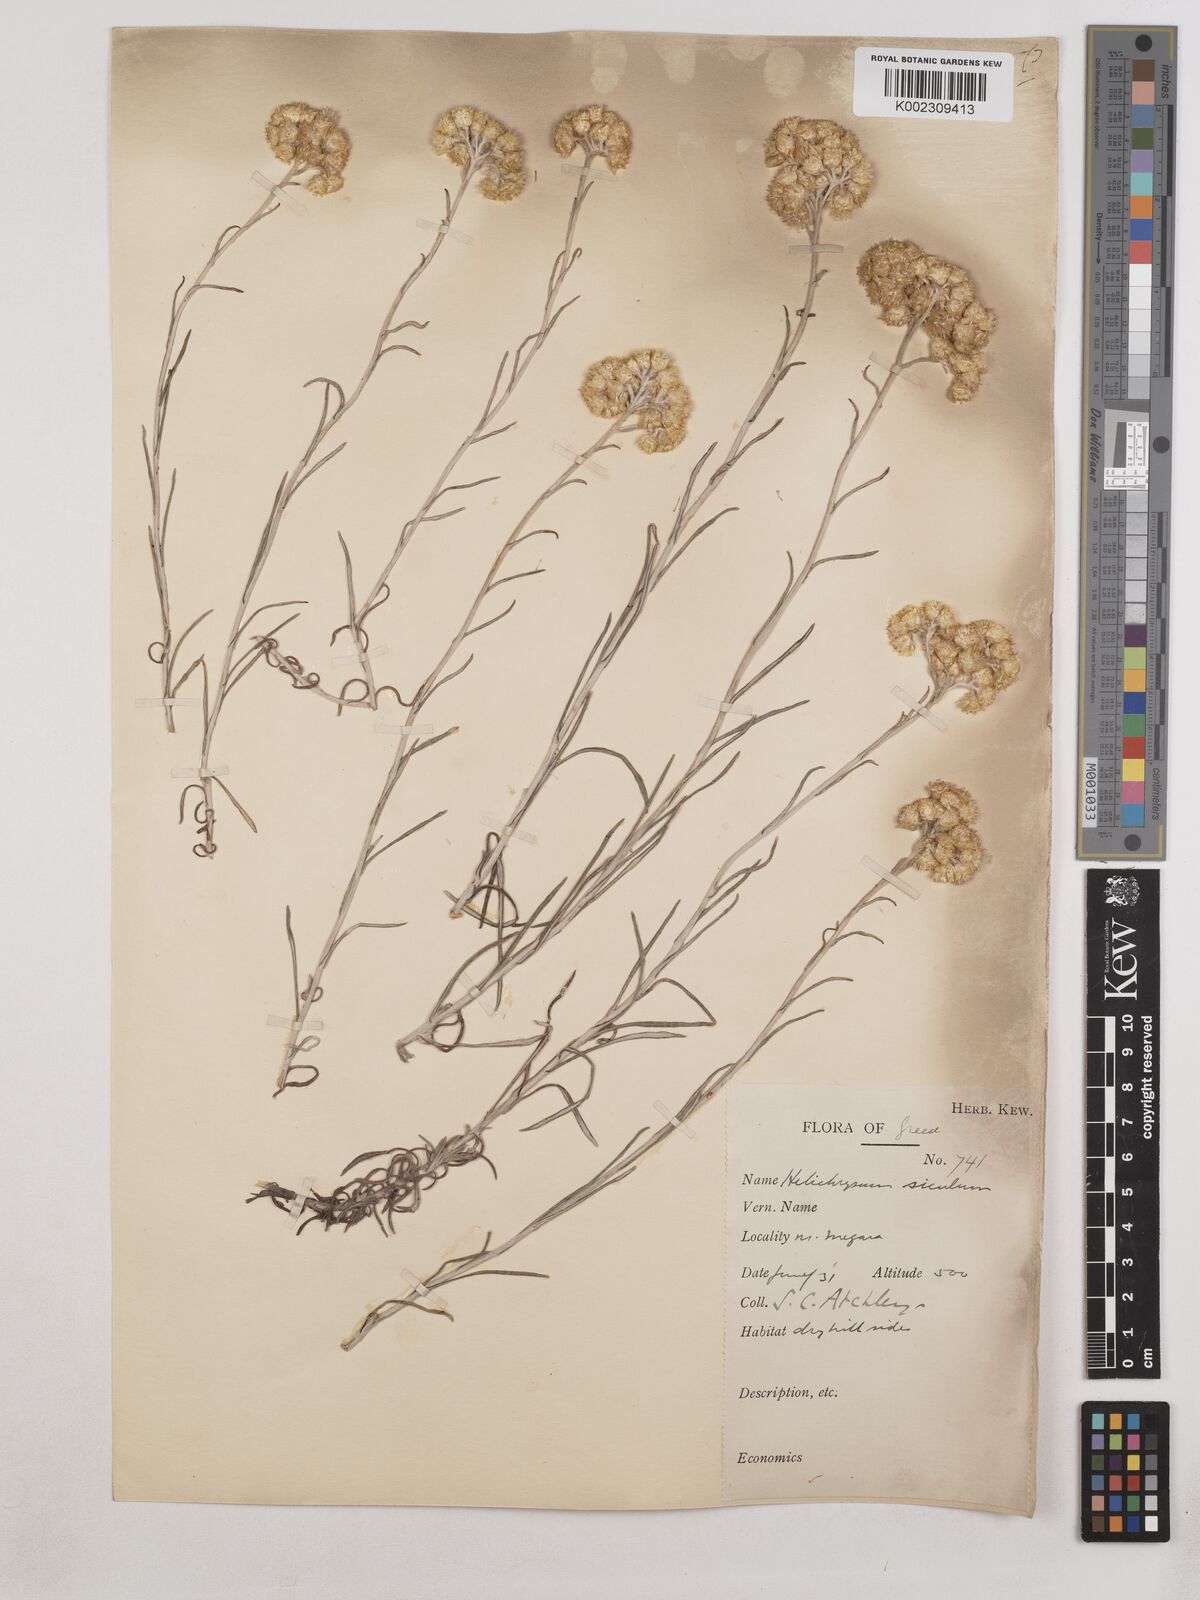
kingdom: Plantae
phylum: Tracheophyta
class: Magnoliopsida
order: Asterales
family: Asteraceae
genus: Helichrysum
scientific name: Helichrysum stoechas
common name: Goldilocks
